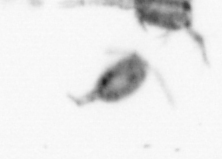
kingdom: Animalia
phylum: Arthropoda
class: Copepoda
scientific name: Copepoda
